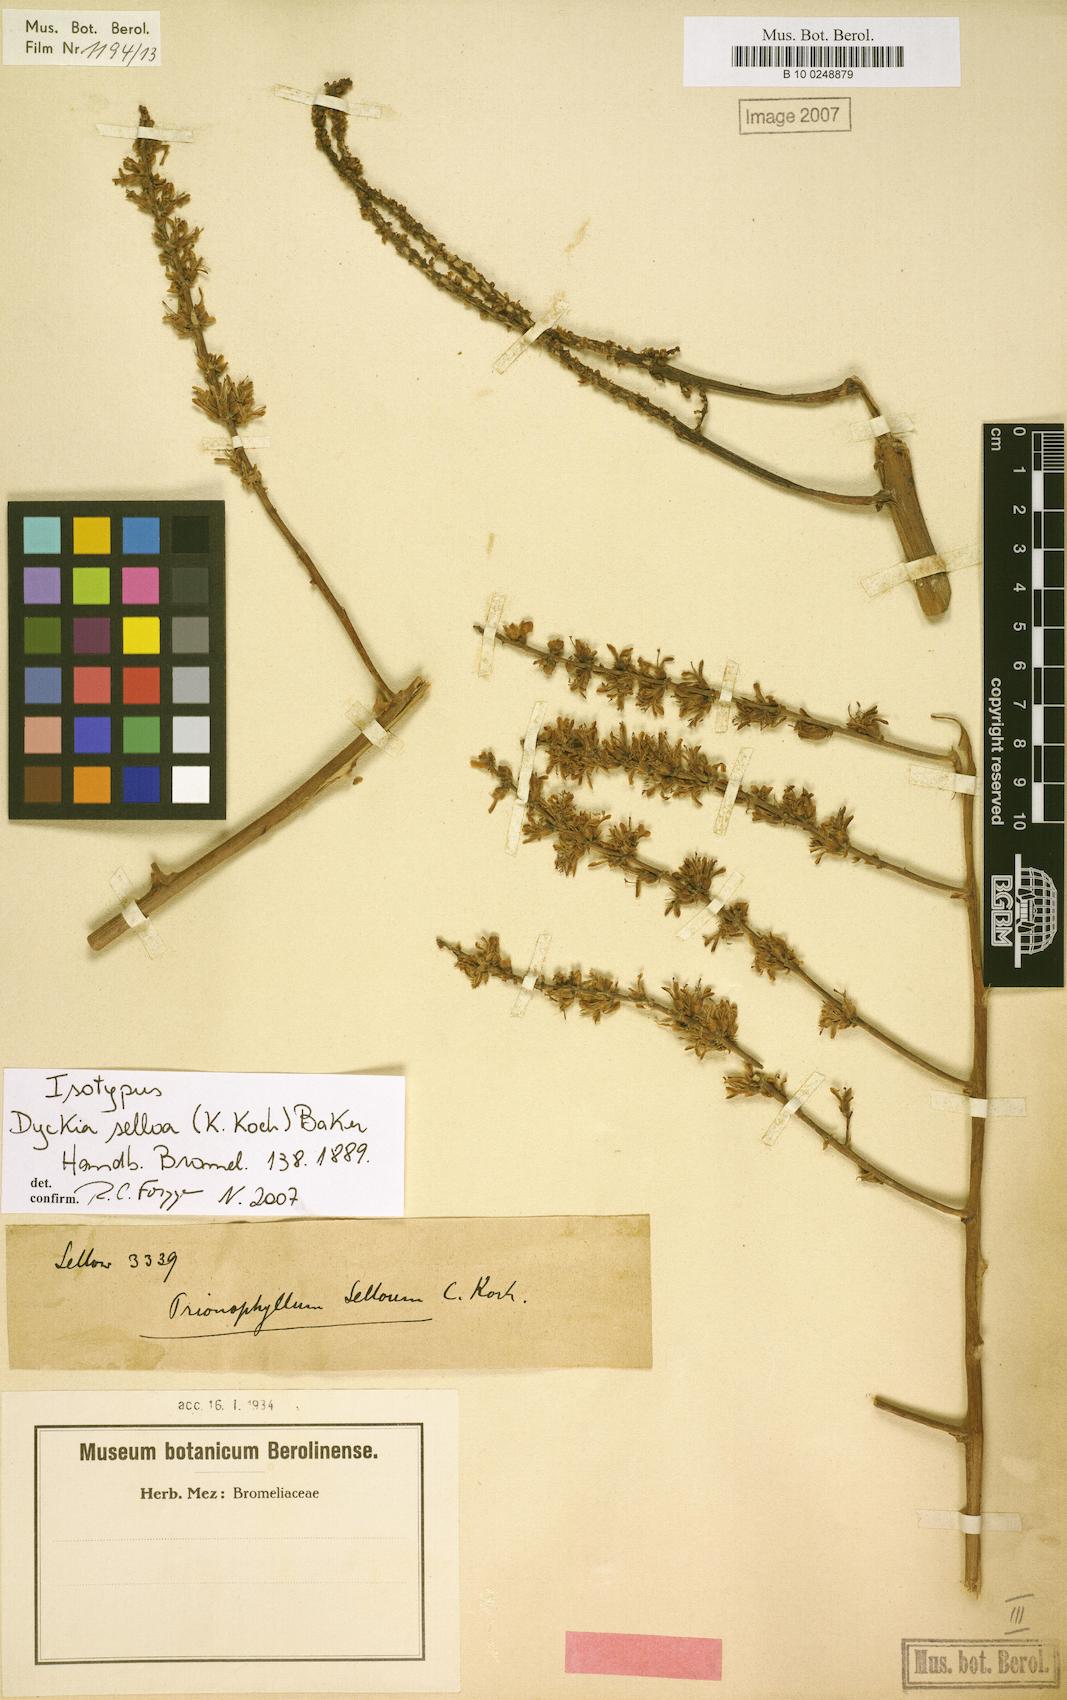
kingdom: Plantae
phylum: Tracheophyta
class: Liliopsida
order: Poales
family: Bromeliaceae
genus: Dyckia
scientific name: Dyckia selloa
